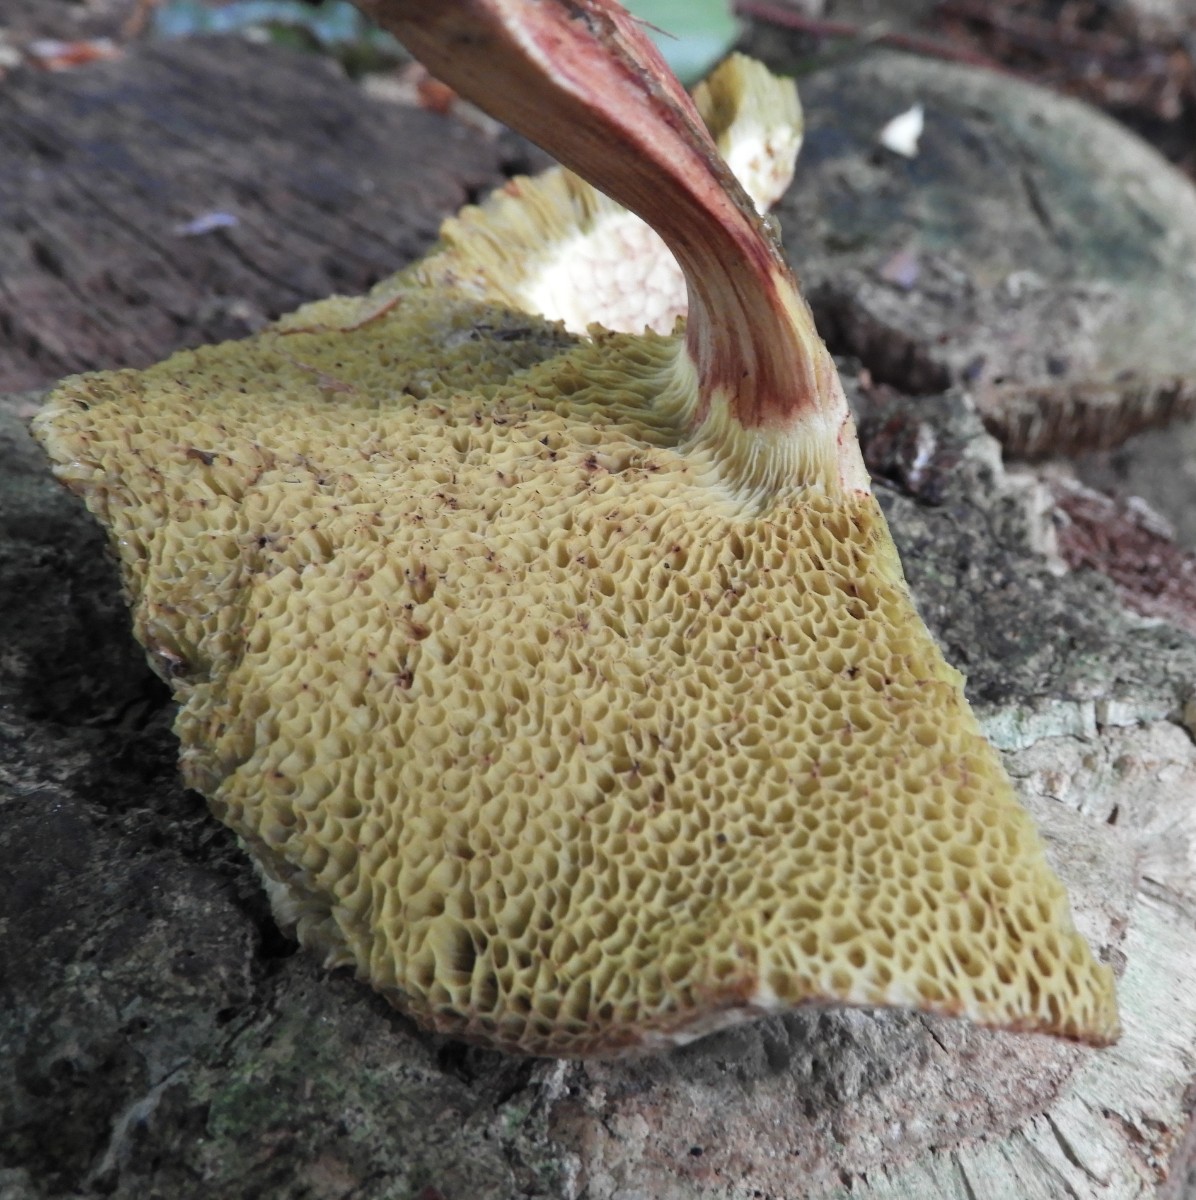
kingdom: Fungi
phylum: Basidiomycota
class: Agaricomycetes
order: Boletales
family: Boletaceae
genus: Xerocomellus
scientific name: Xerocomellus chrysenteron
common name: rødsprukken rørhat
